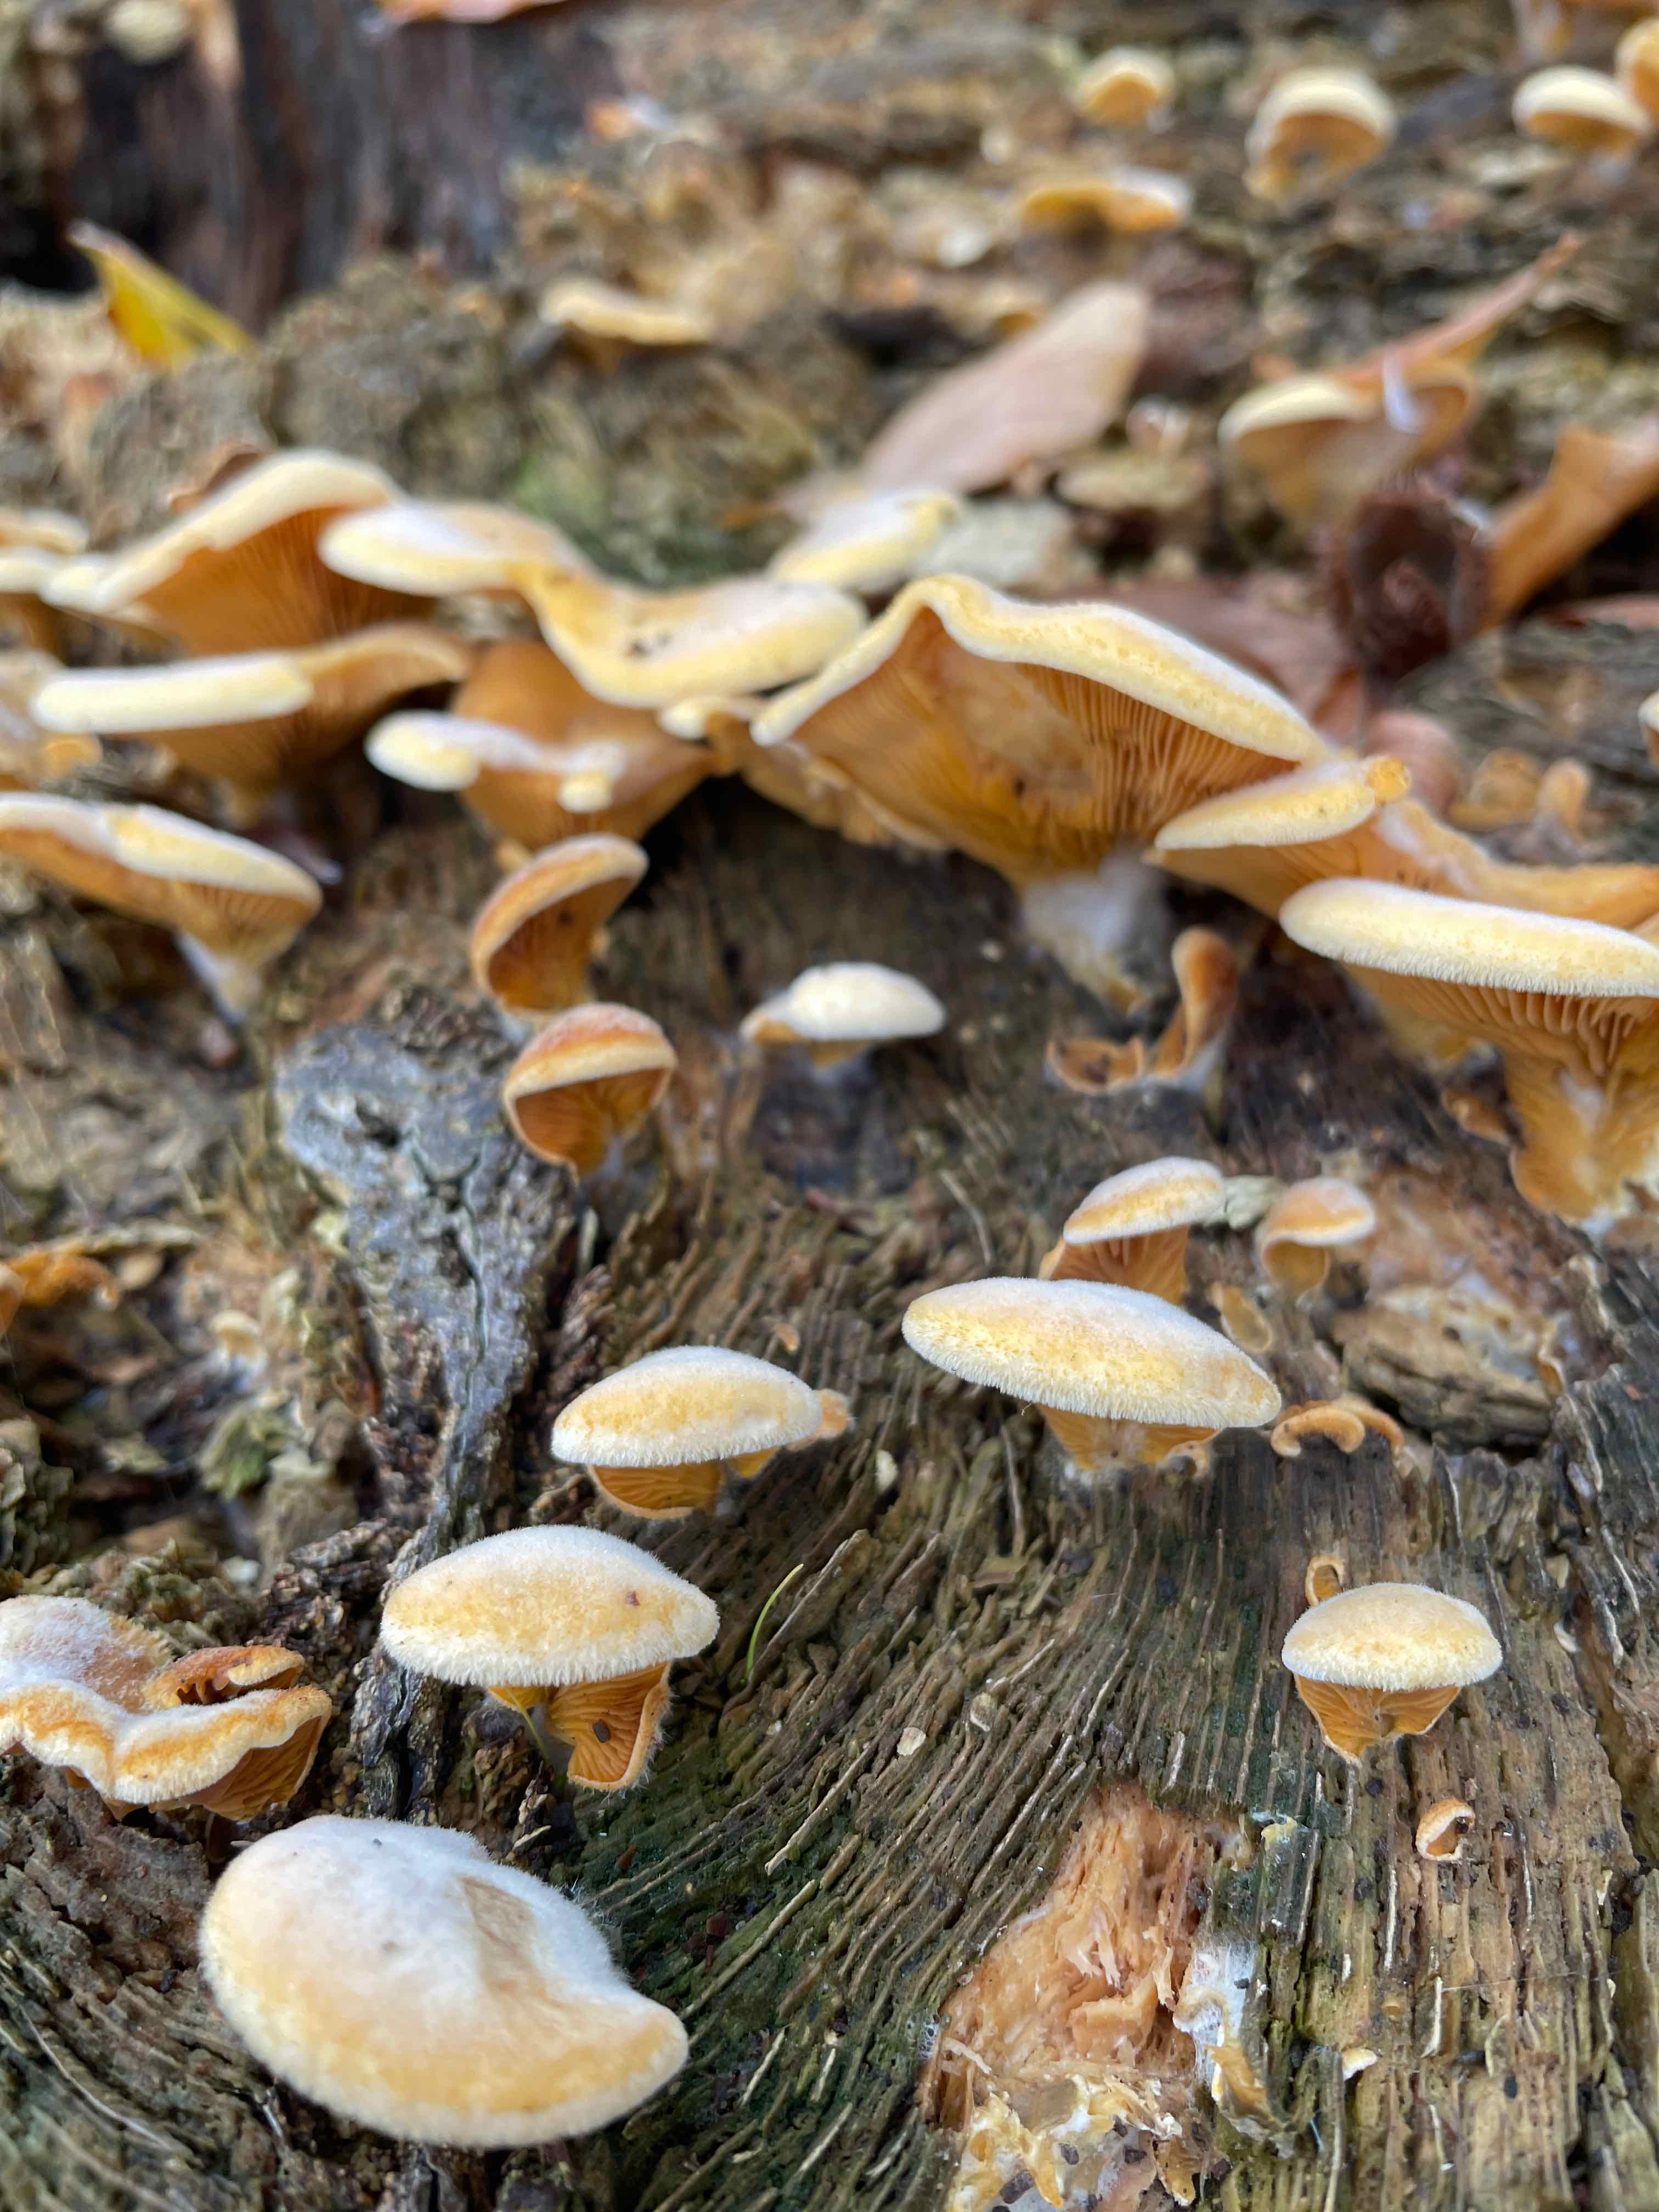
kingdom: Fungi
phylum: Basidiomycota
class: Agaricomycetes
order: Agaricales
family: Phyllotopsidaceae
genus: Phyllotopsis
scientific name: Phyllotopsis nidulans
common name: okkerblad
